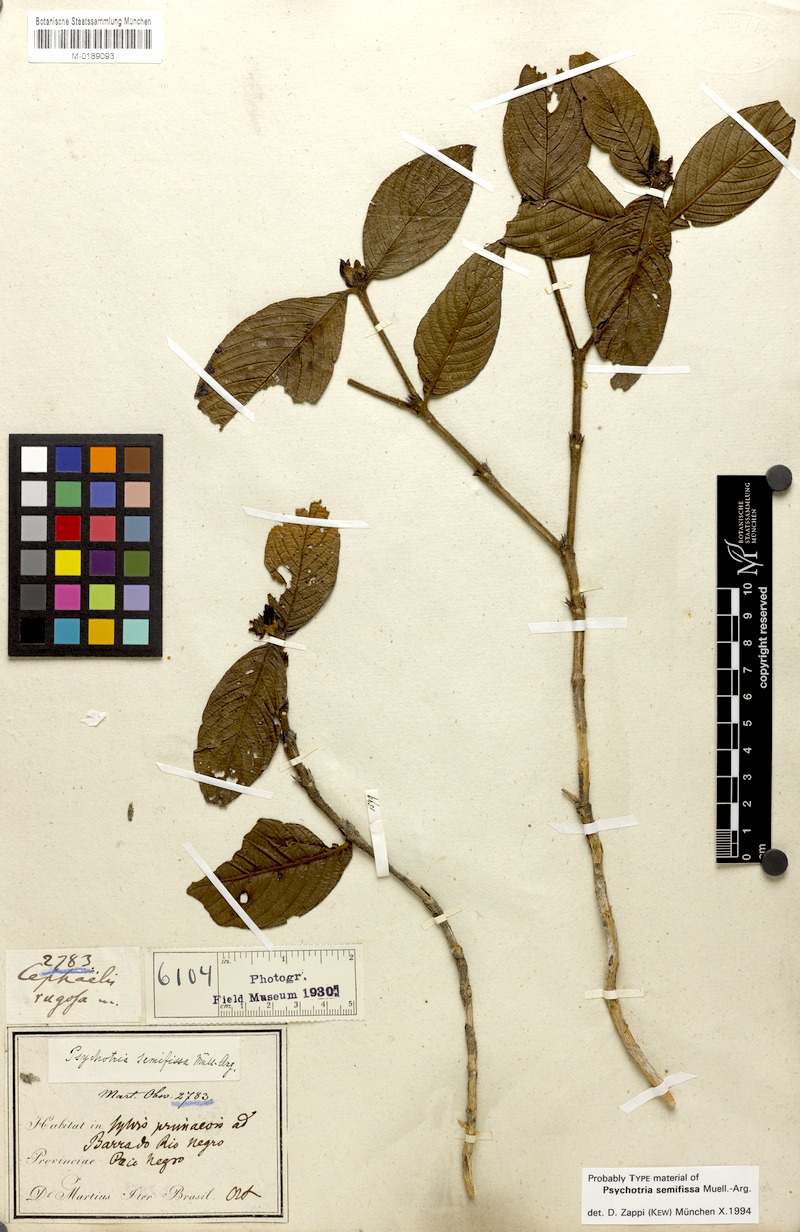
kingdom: Plantae
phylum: Tracheophyta
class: Magnoliopsida
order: Gentianales
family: Rubiaceae
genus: Psychotria
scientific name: Psychotria semifissa
